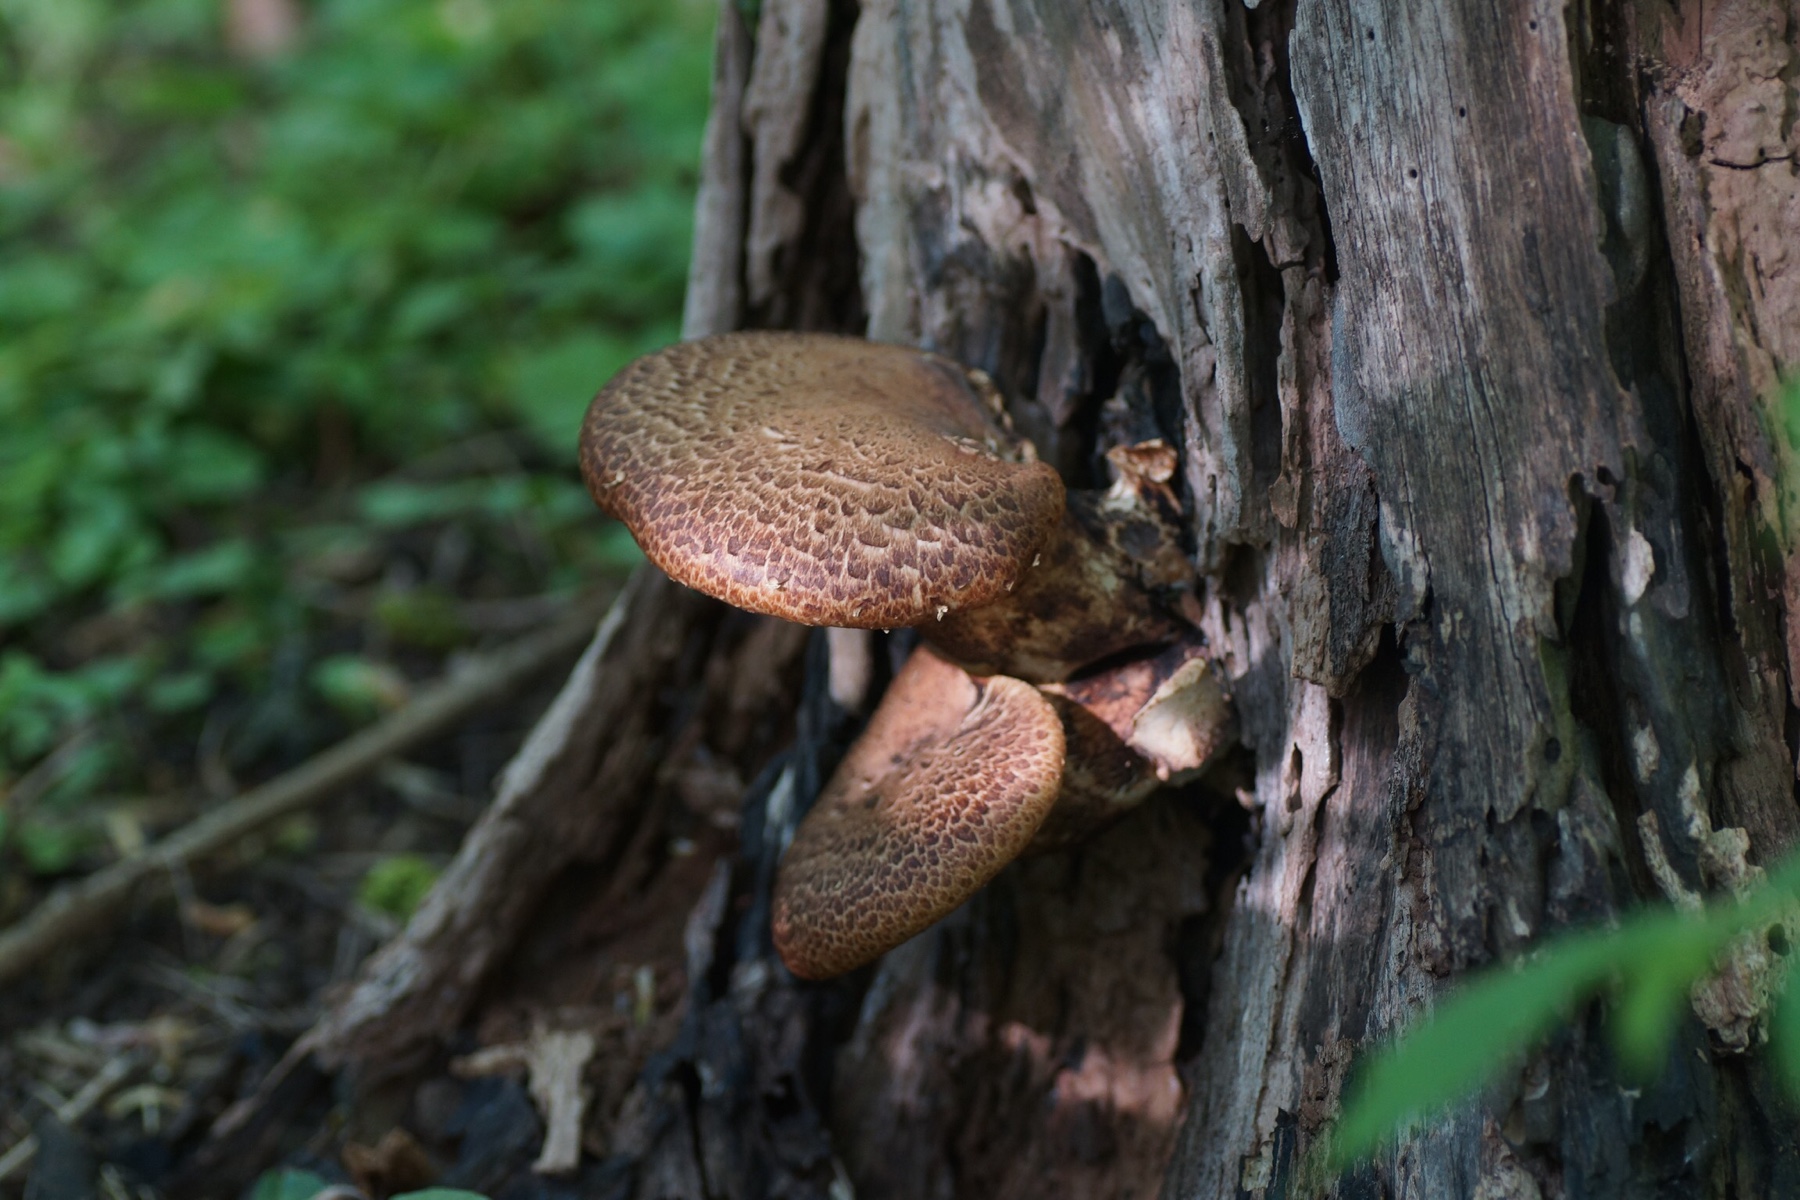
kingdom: Fungi
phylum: Basidiomycota
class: Agaricomycetes
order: Polyporales
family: Polyporaceae
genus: Cerioporus
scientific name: Cerioporus squamosus
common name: skællet stilkporesvamp
